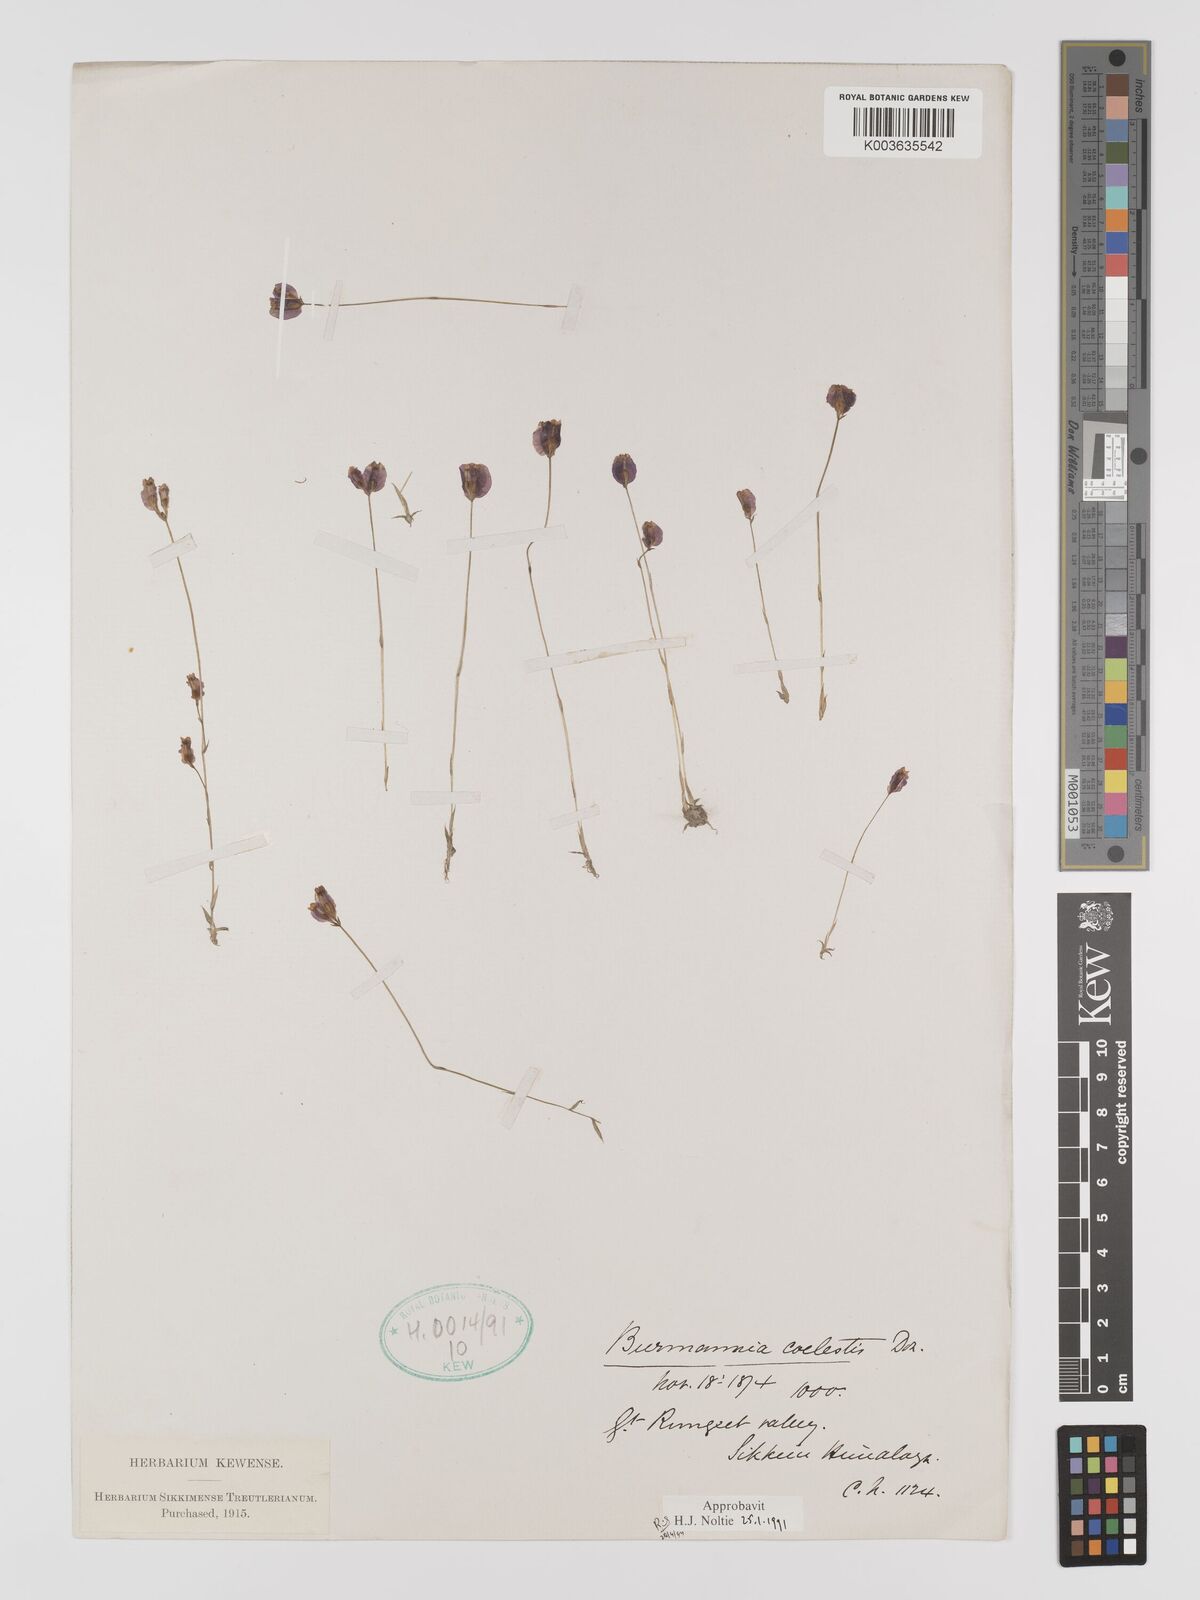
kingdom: Plantae
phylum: Tracheophyta
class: Liliopsida
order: Dioscoreales
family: Burmanniaceae
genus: Burmannia
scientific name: Burmannia coelestis
